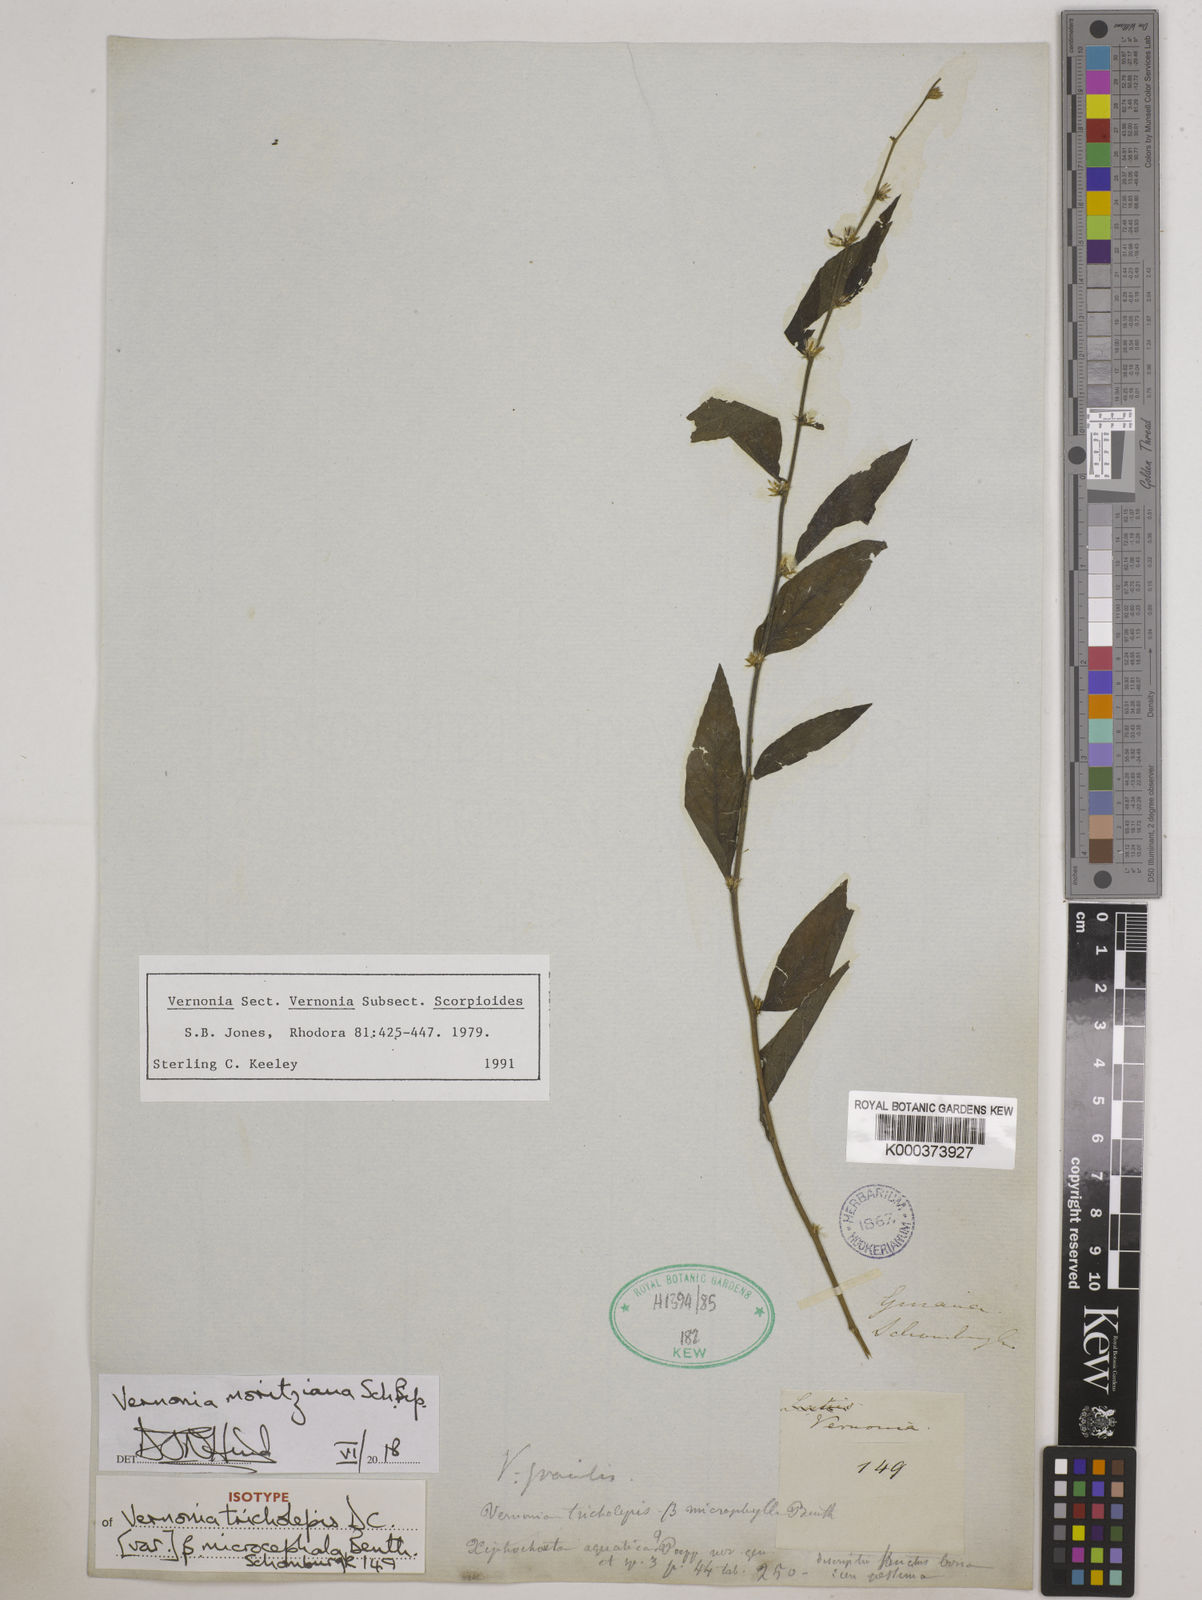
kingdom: Plantae
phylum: Tracheophyta
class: Magnoliopsida
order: Asterales
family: Asteraceae
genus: Lepidaploa
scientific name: Lepidaploa gracilis
